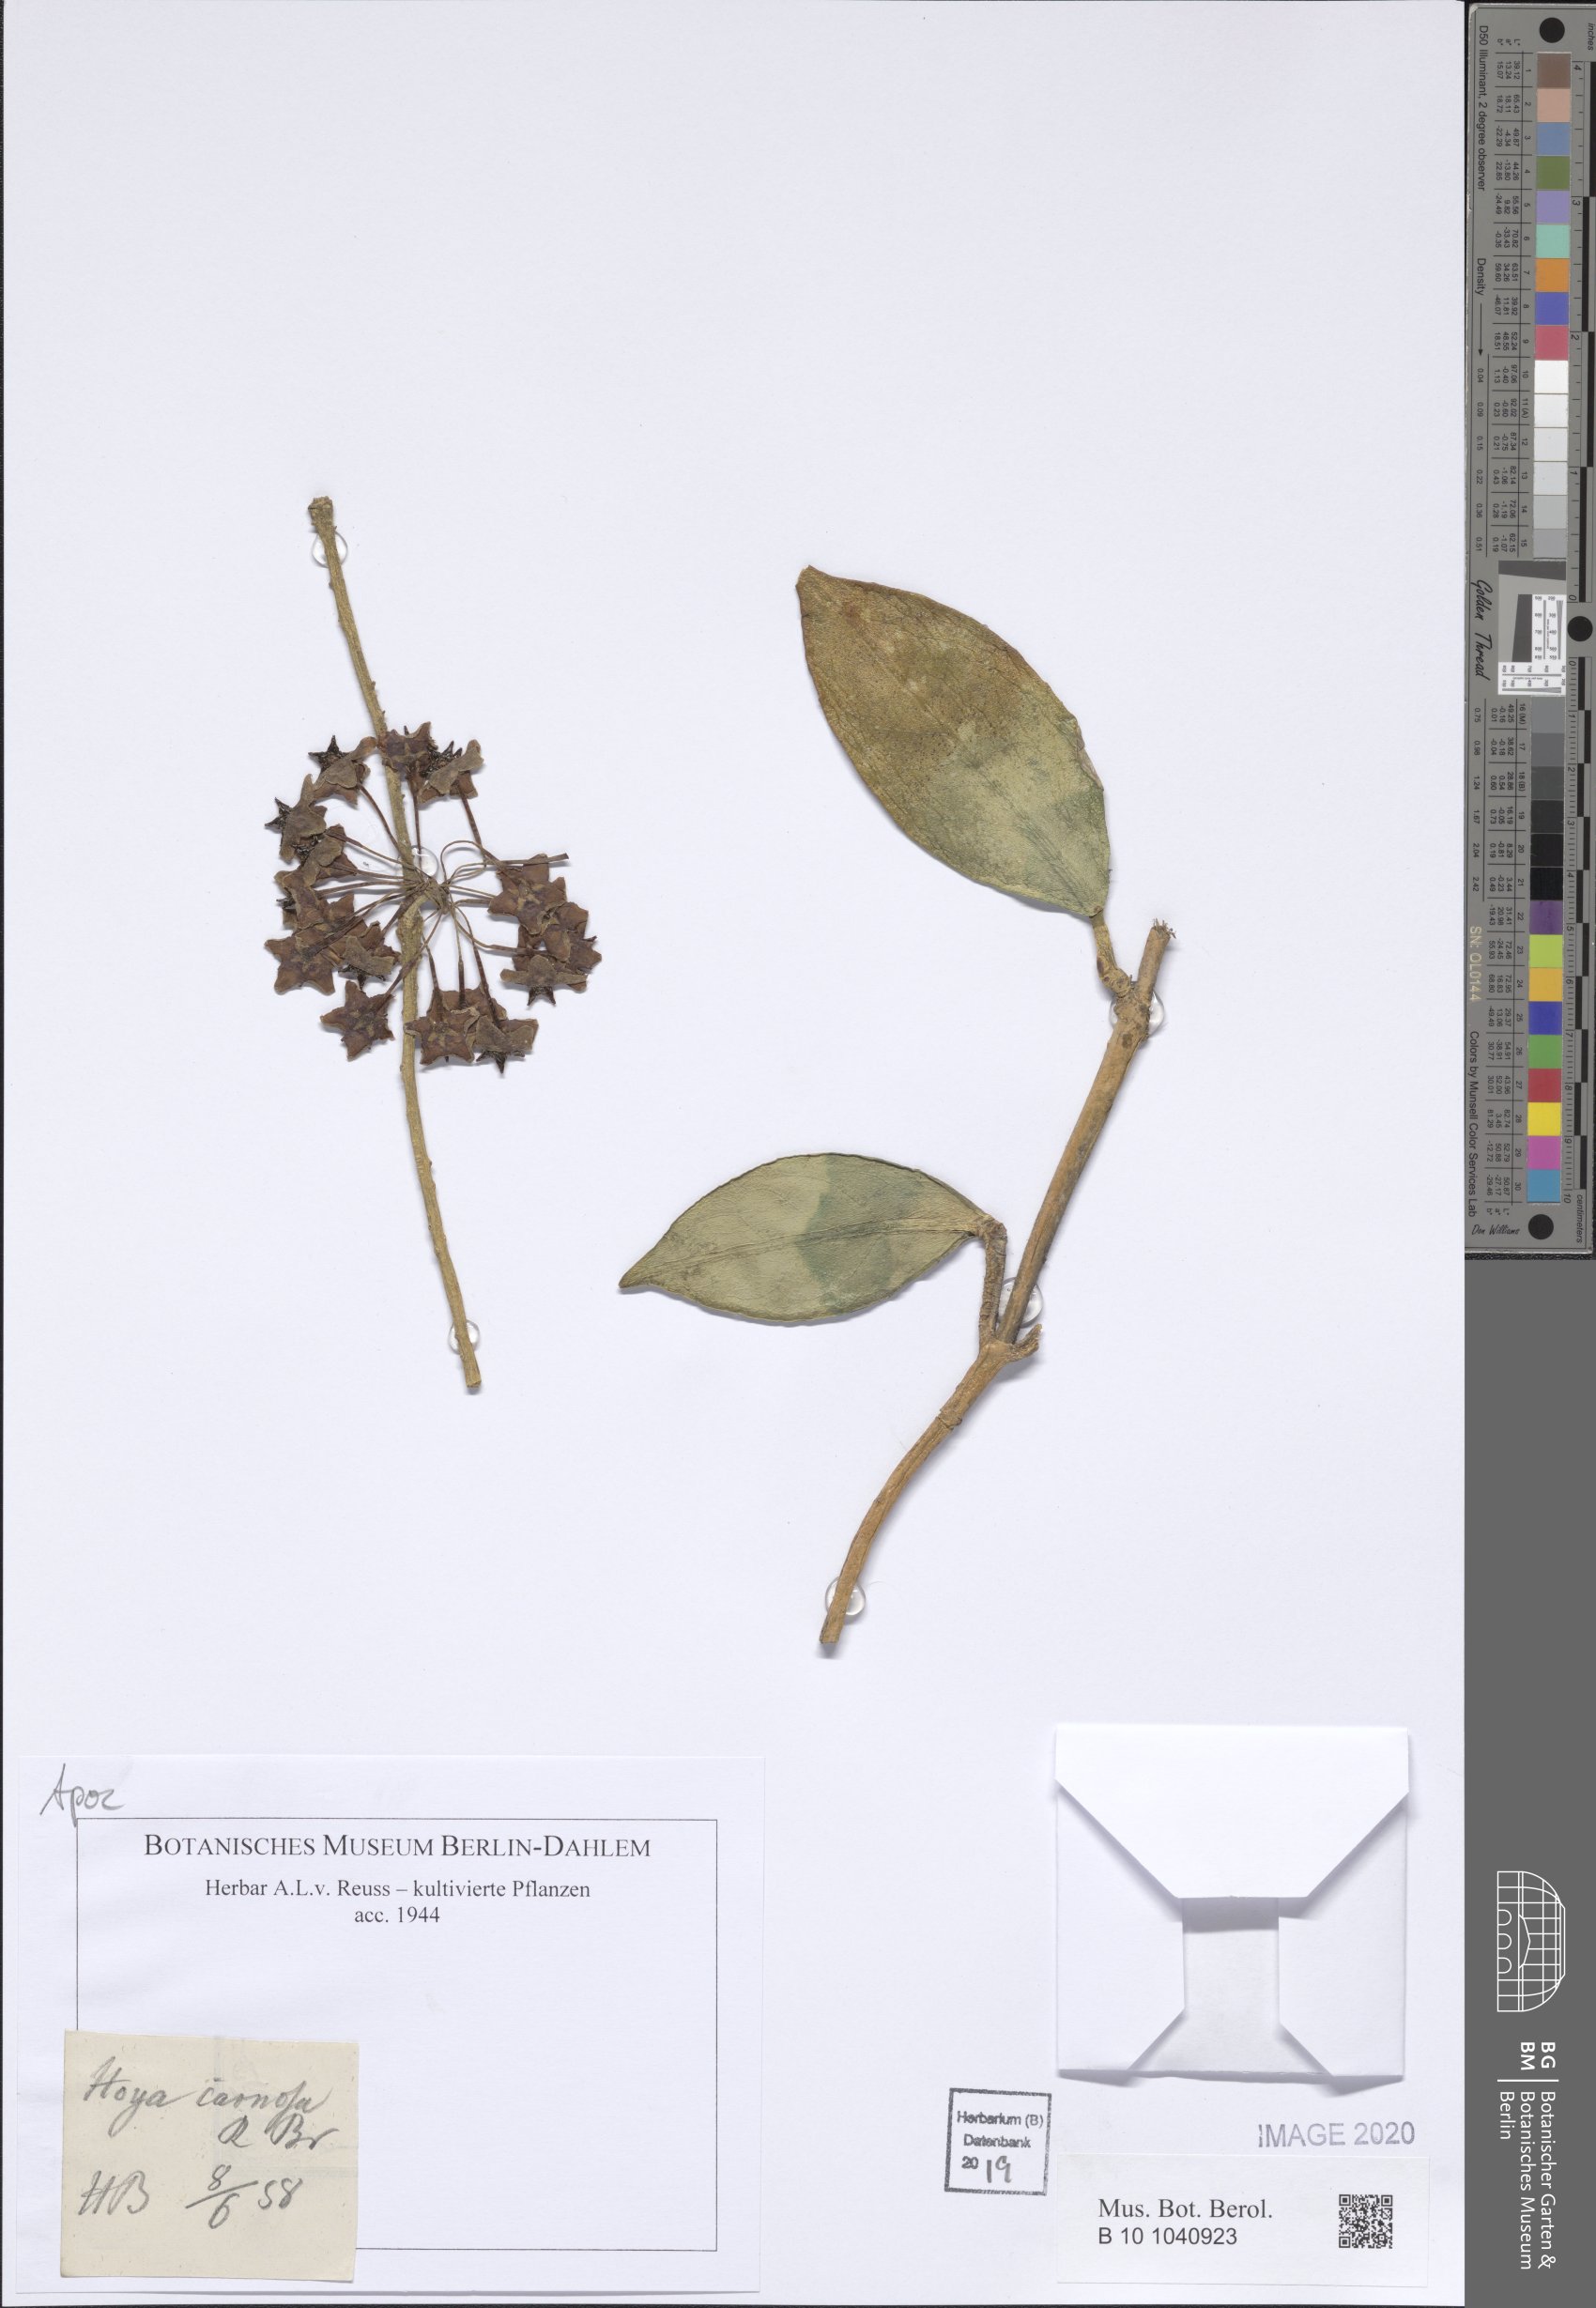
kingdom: Plantae
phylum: Tracheophyta
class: Magnoliopsida
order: Gentianales
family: Apocynaceae
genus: Hoya
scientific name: Hoya carnosa
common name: Honeyplant
